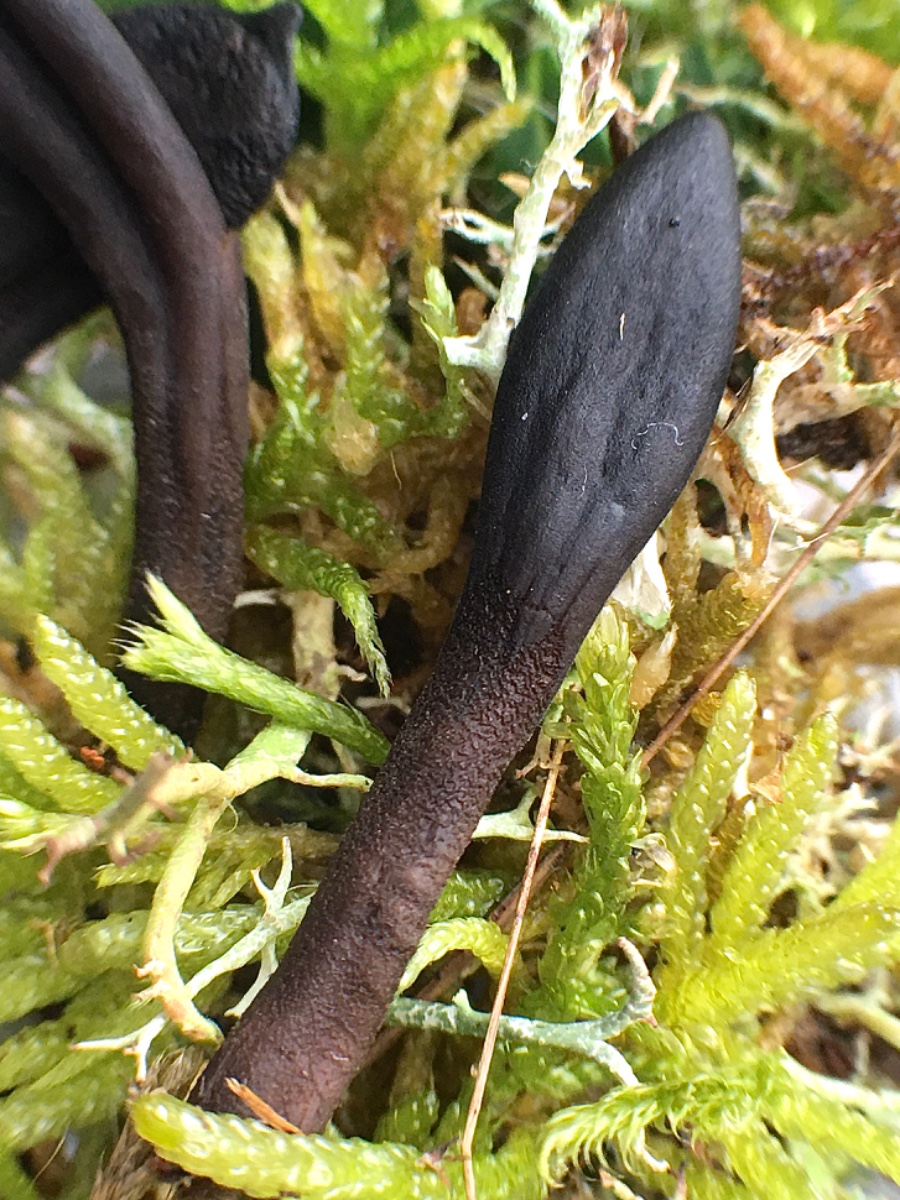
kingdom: Fungi
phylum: Ascomycota
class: Geoglossomycetes
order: Geoglossales
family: Geoglossaceae
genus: Geoglossum
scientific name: Geoglossum fallax
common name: småskællet jordtunge
